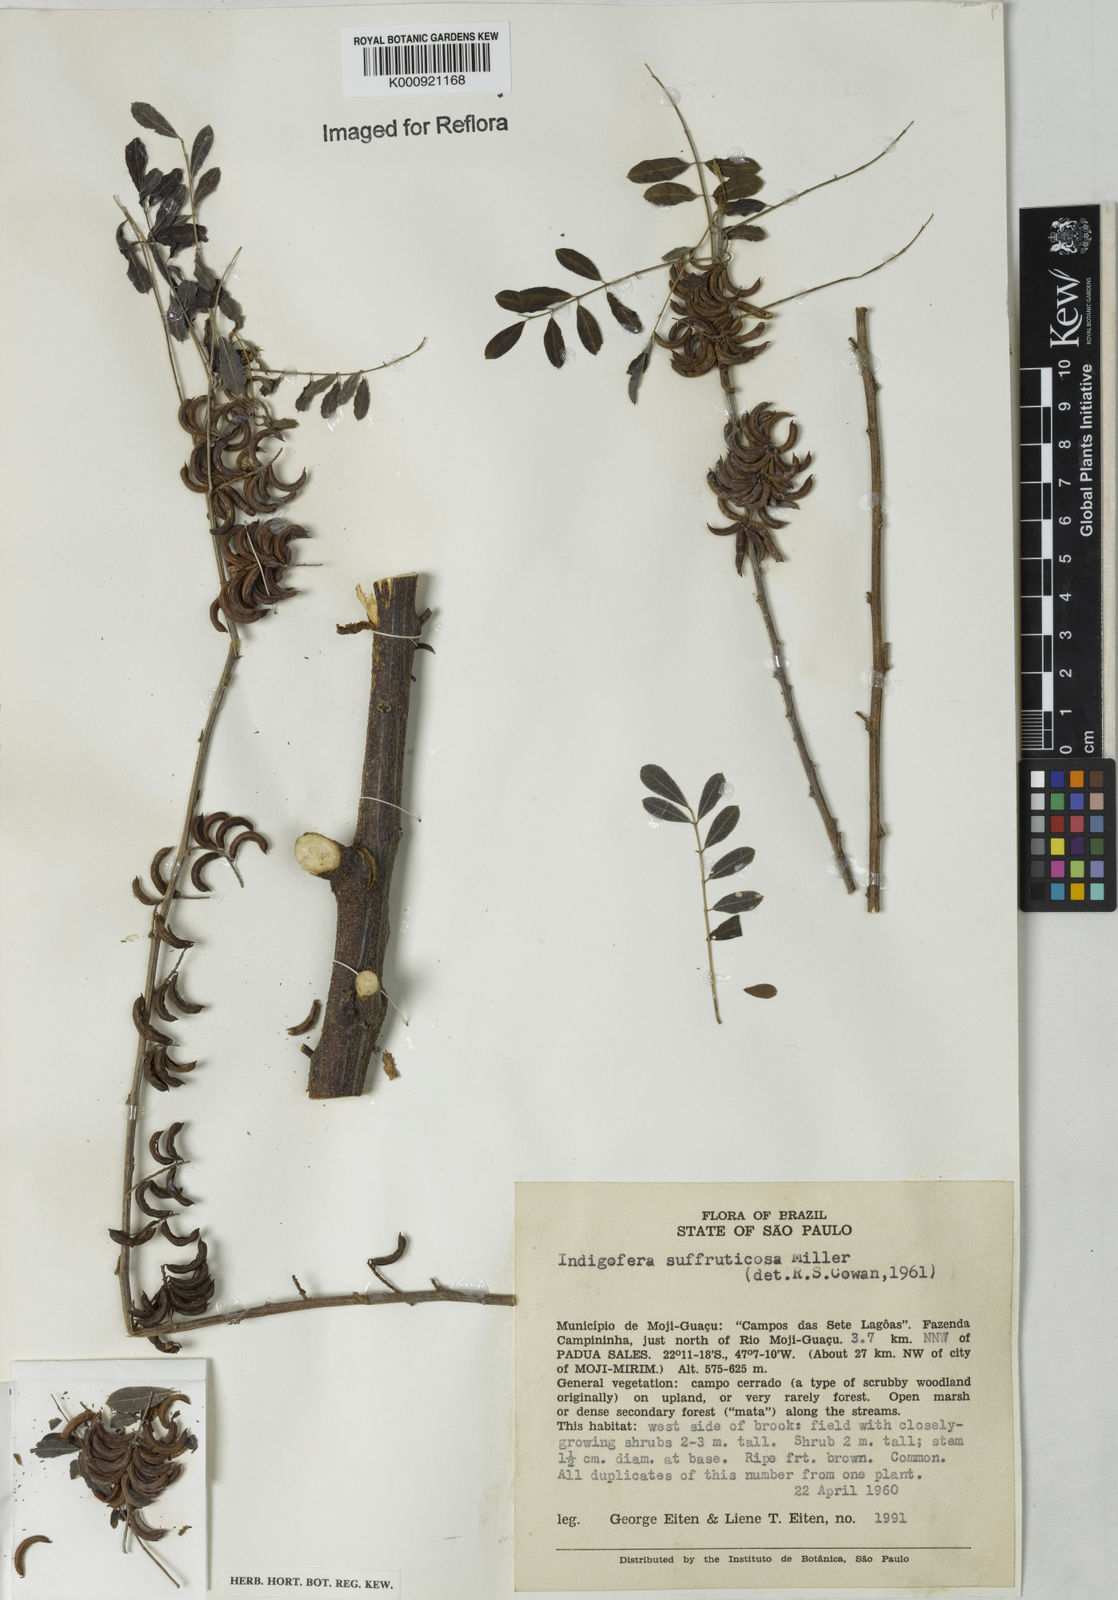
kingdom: Plantae
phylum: Tracheophyta
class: Magnoliopsida
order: Fabales
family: Fabaceae
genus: Indigofera
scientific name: Indigofera
